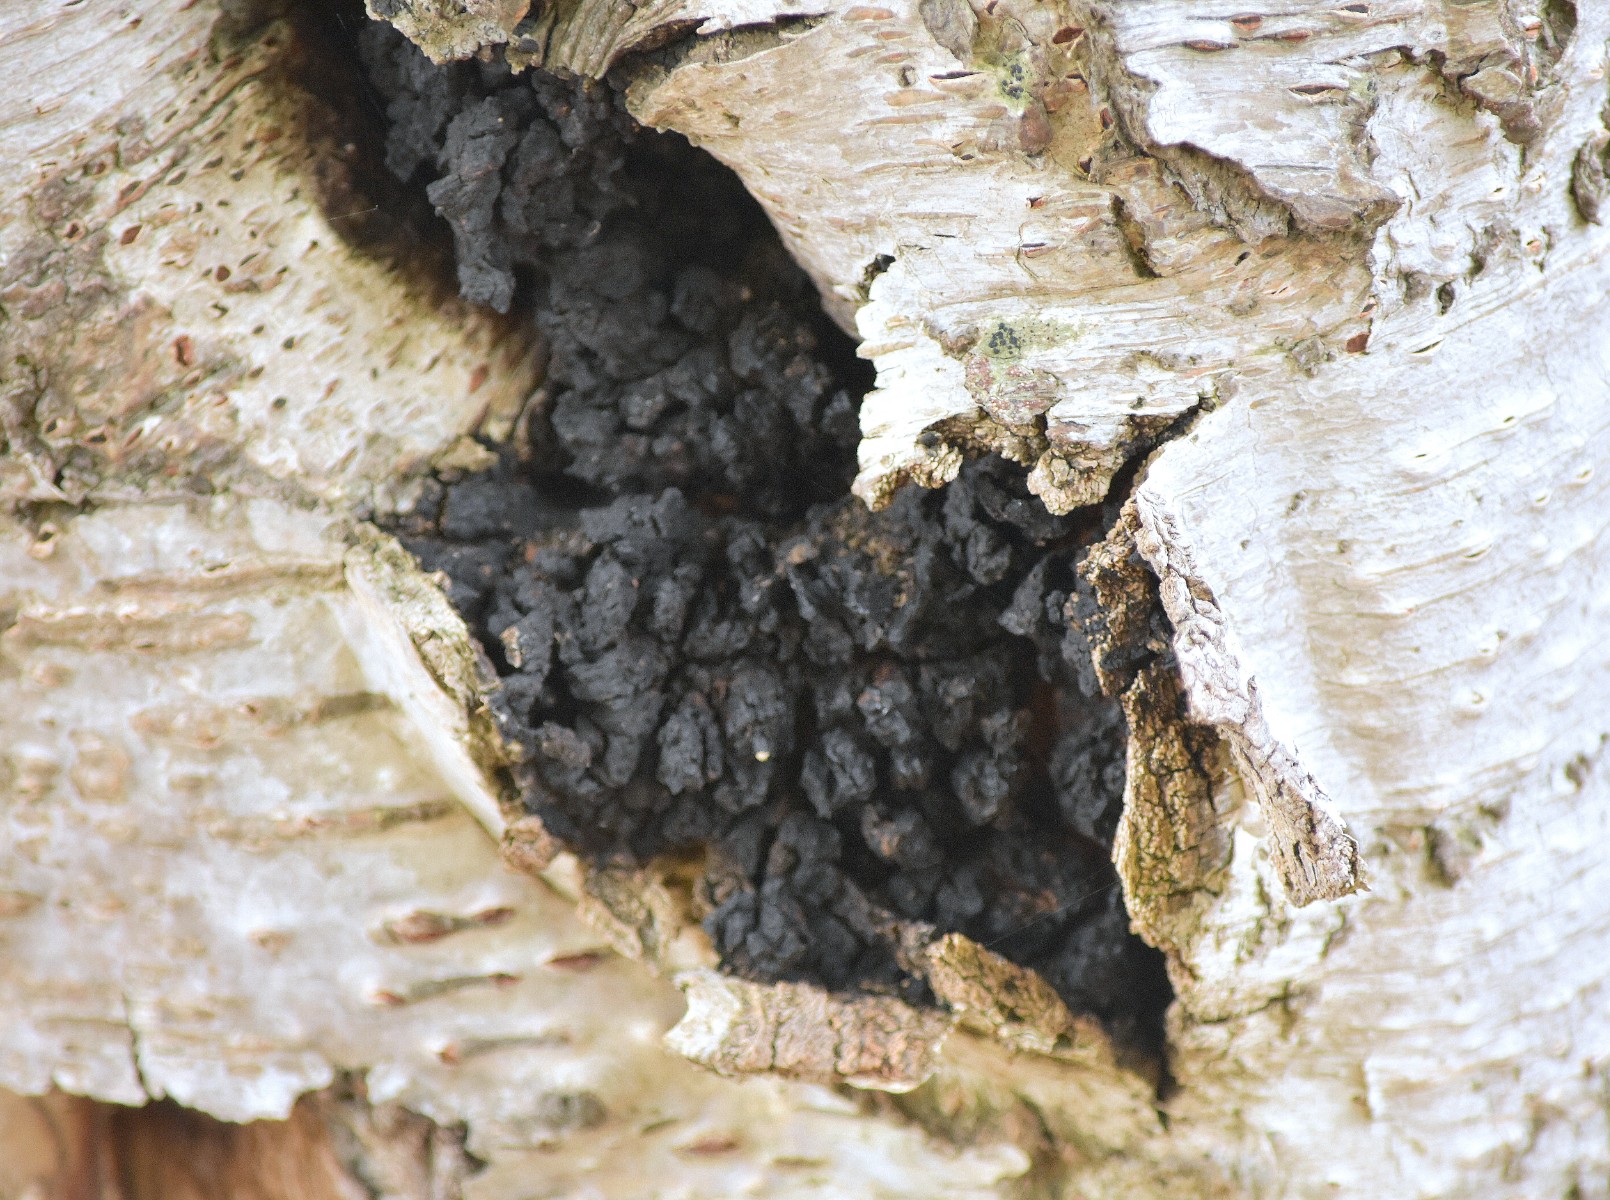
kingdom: Fungi
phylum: Basidiomycota
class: Agaricomycetes
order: Hymenochaetales
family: Hymenochaetaceae
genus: Inonotus
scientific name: Inonotus obliquus
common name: birke-spejlporesvamp
